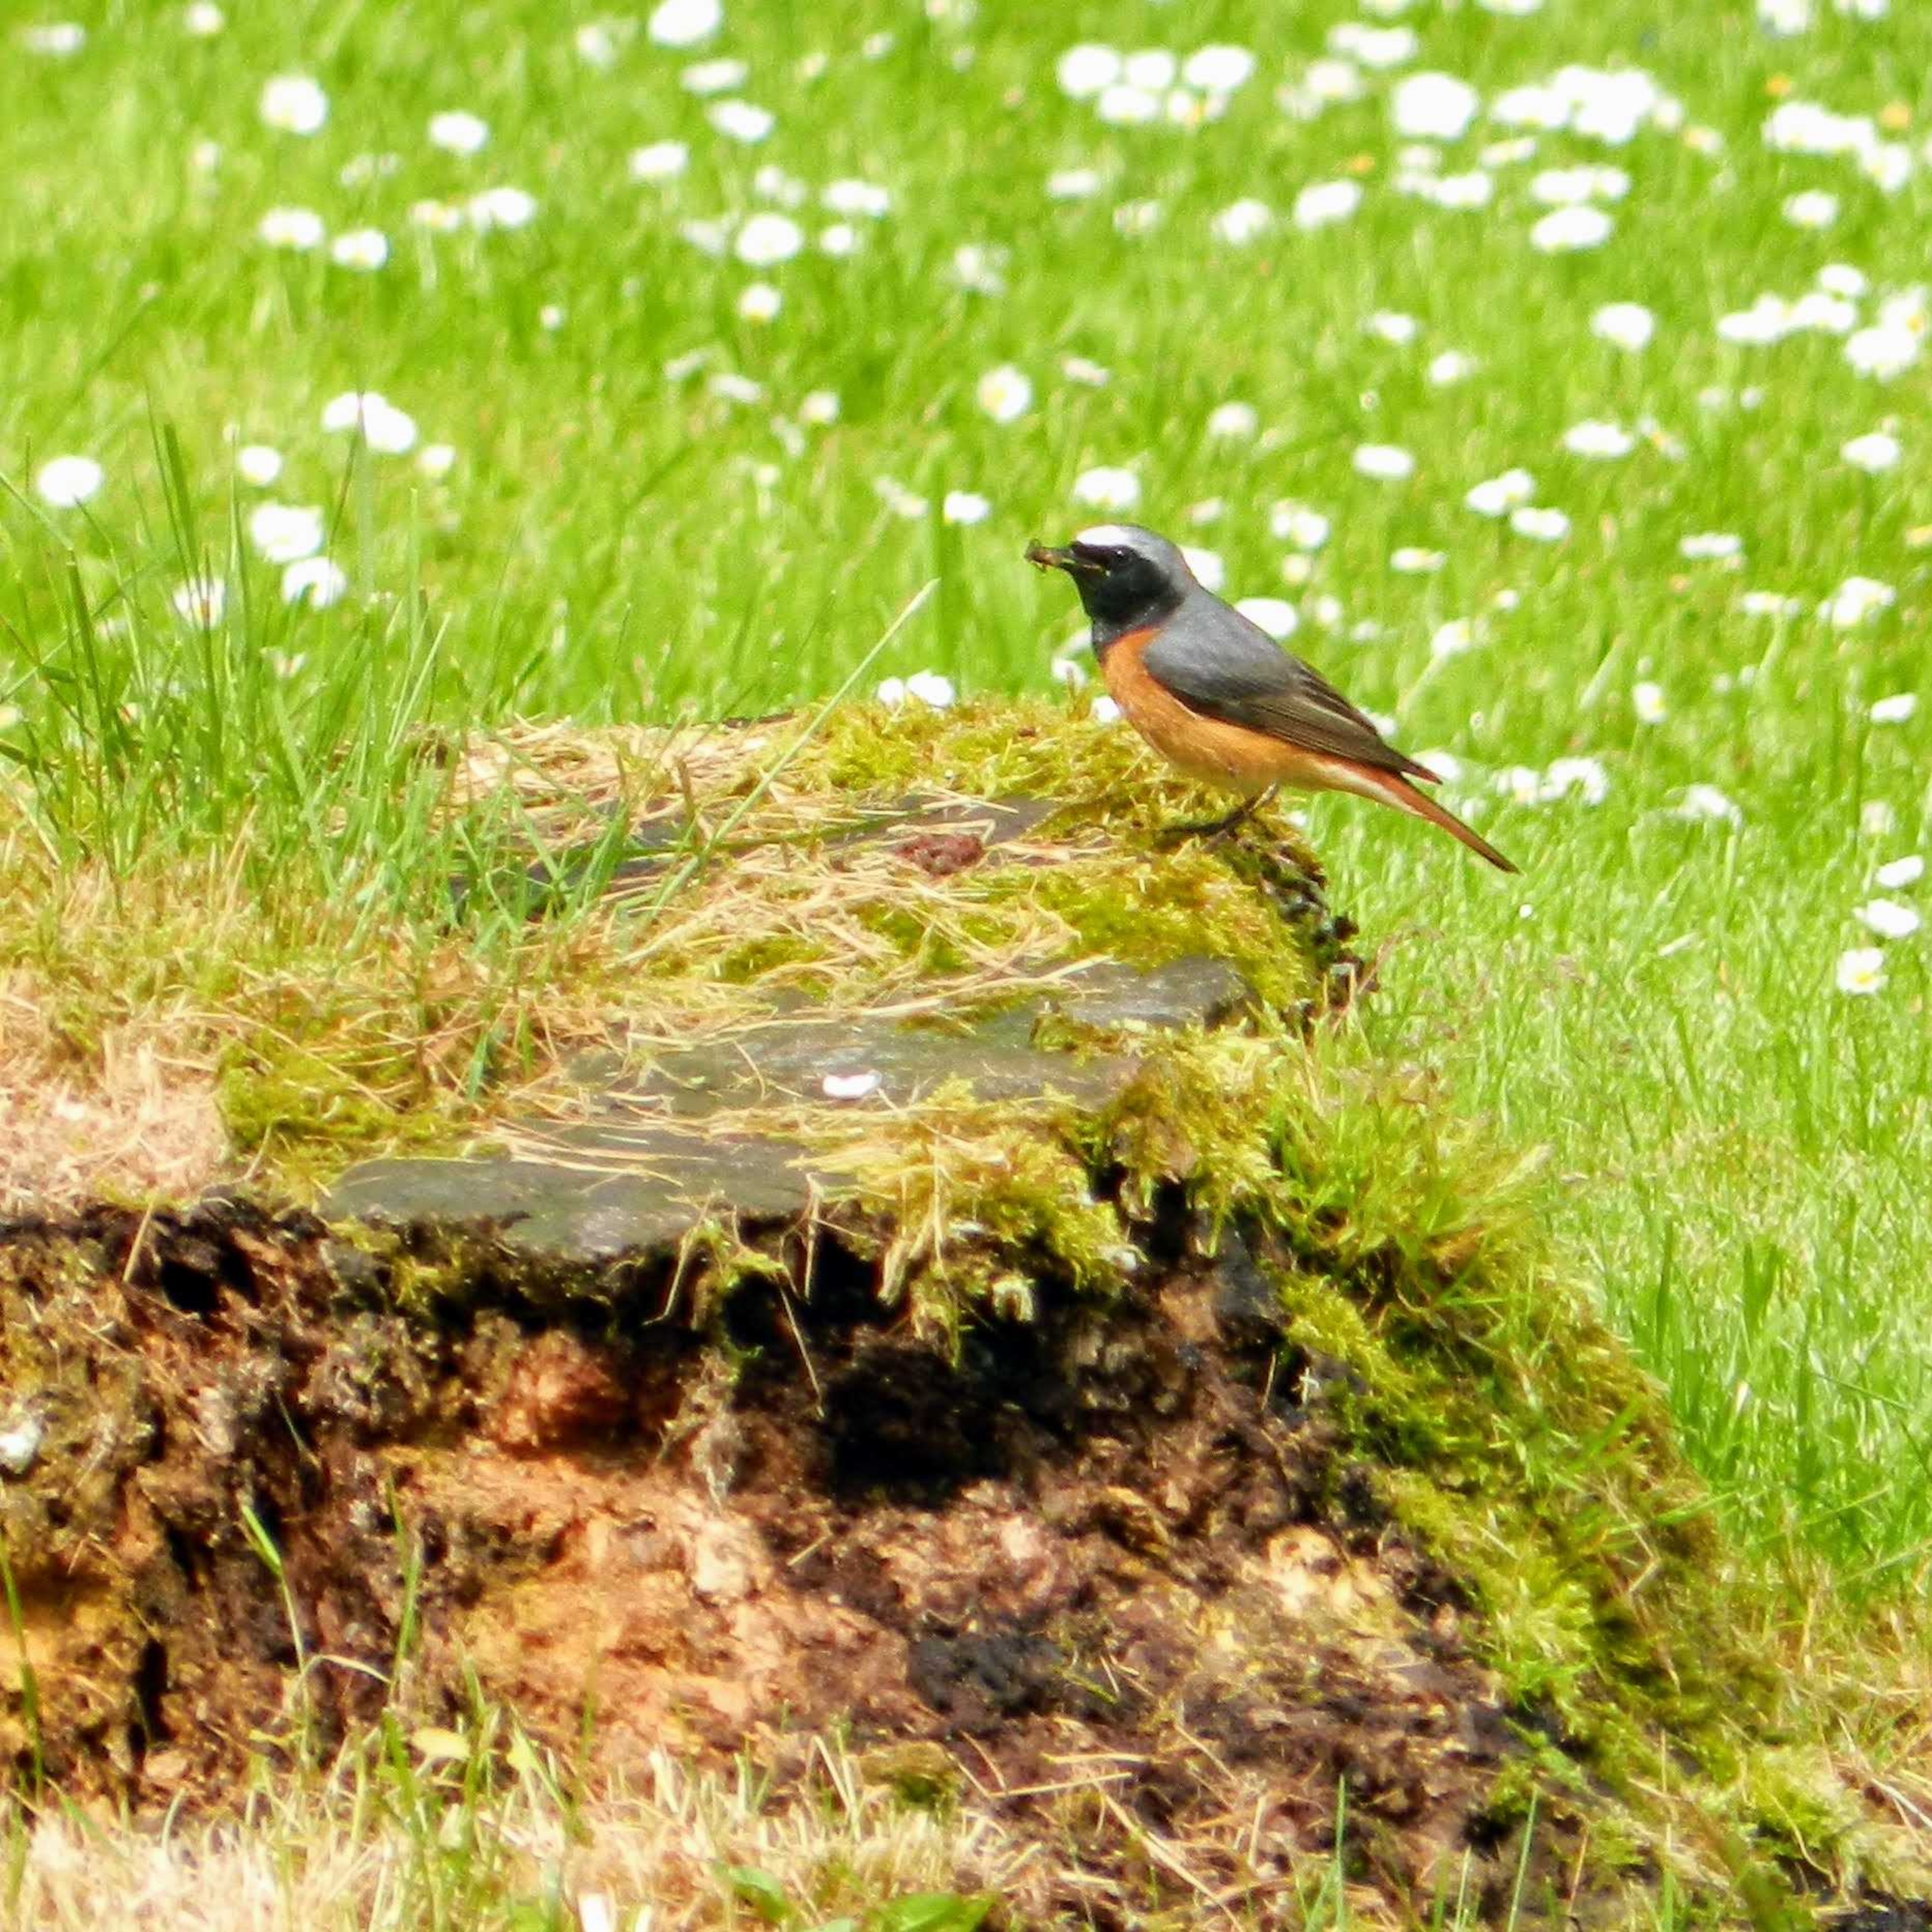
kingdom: Animalia
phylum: Chordata
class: Aves
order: Passeriformes
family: Muscicapidae
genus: Phoenicurus
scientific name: Phoenicurus phoenicurus
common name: Rødstjert
